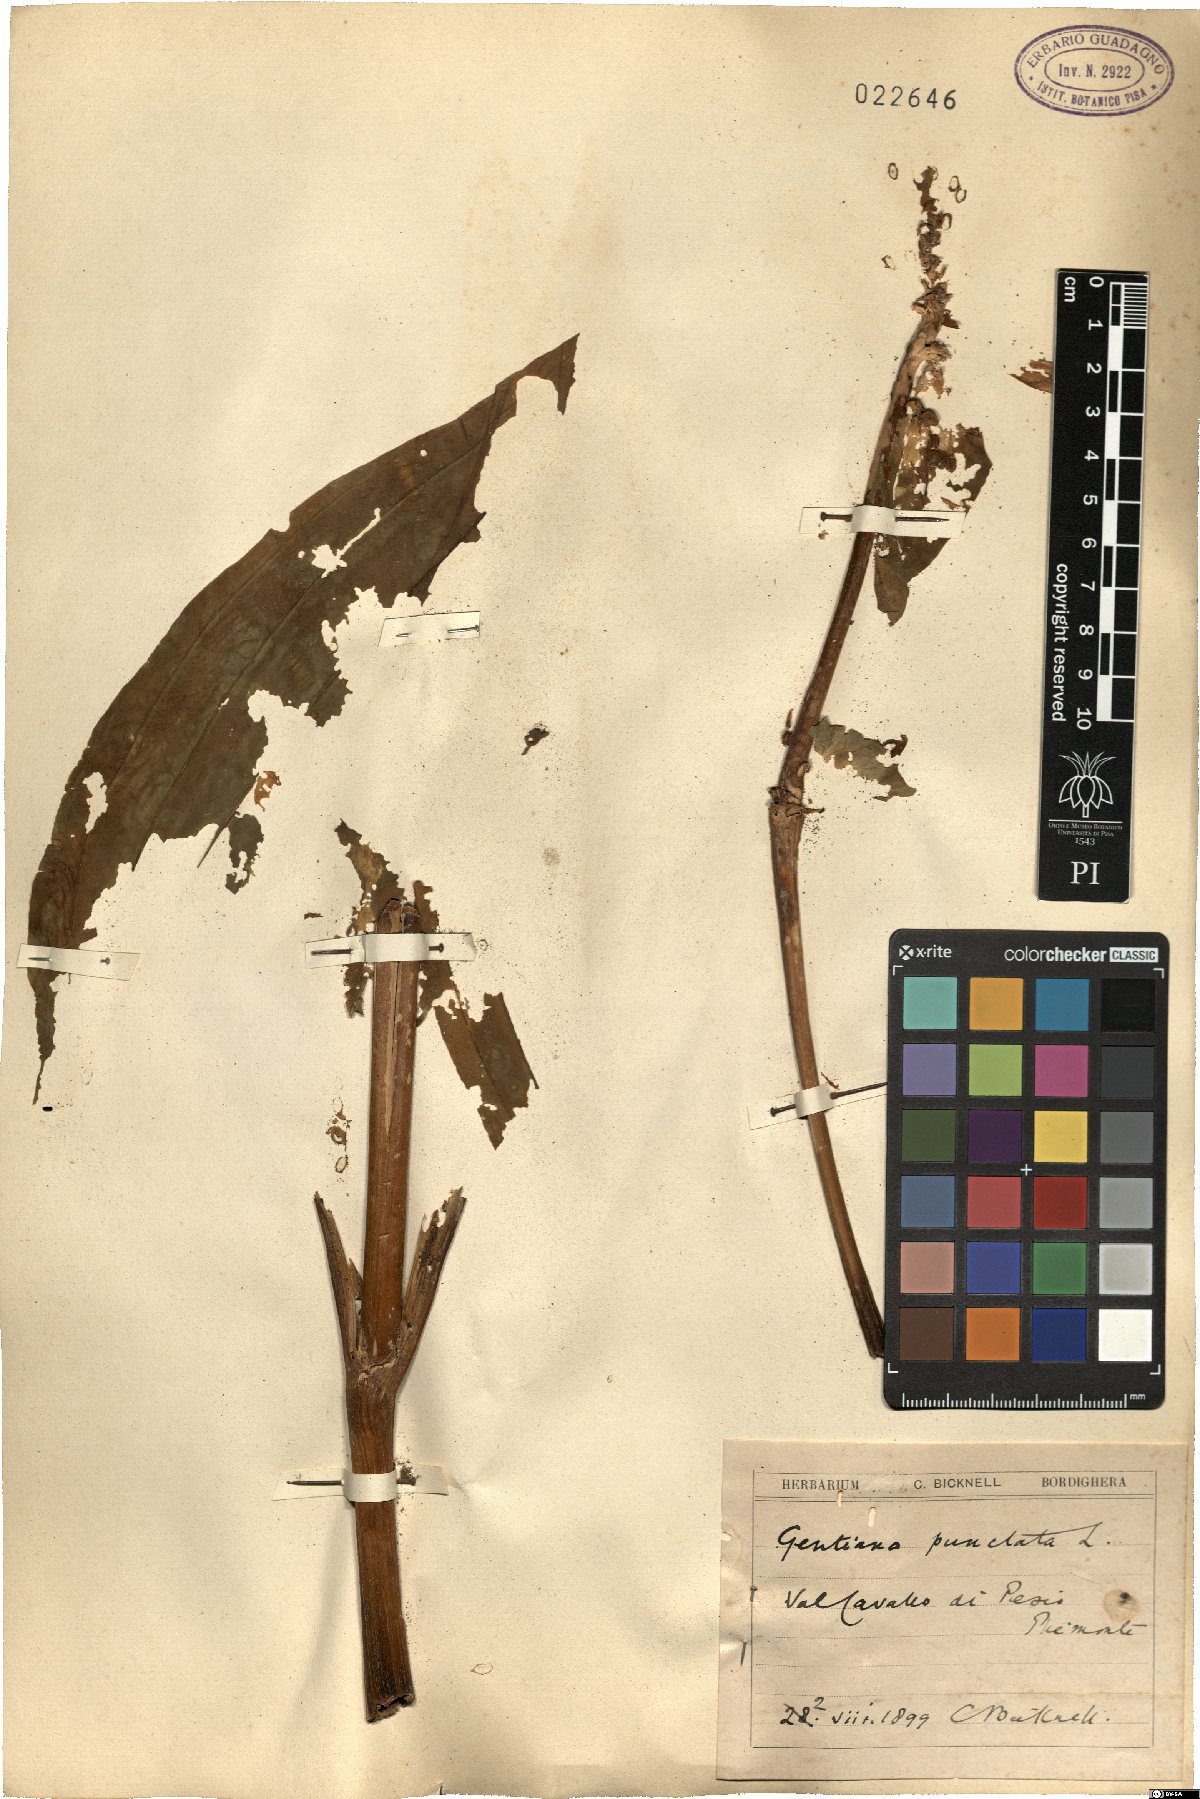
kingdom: Plantae
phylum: Tracheophyta
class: Magnoliopsida
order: Gentianales
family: Gentianaceae
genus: Gentiana
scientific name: Gentiana punctata
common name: Spotted gentian
